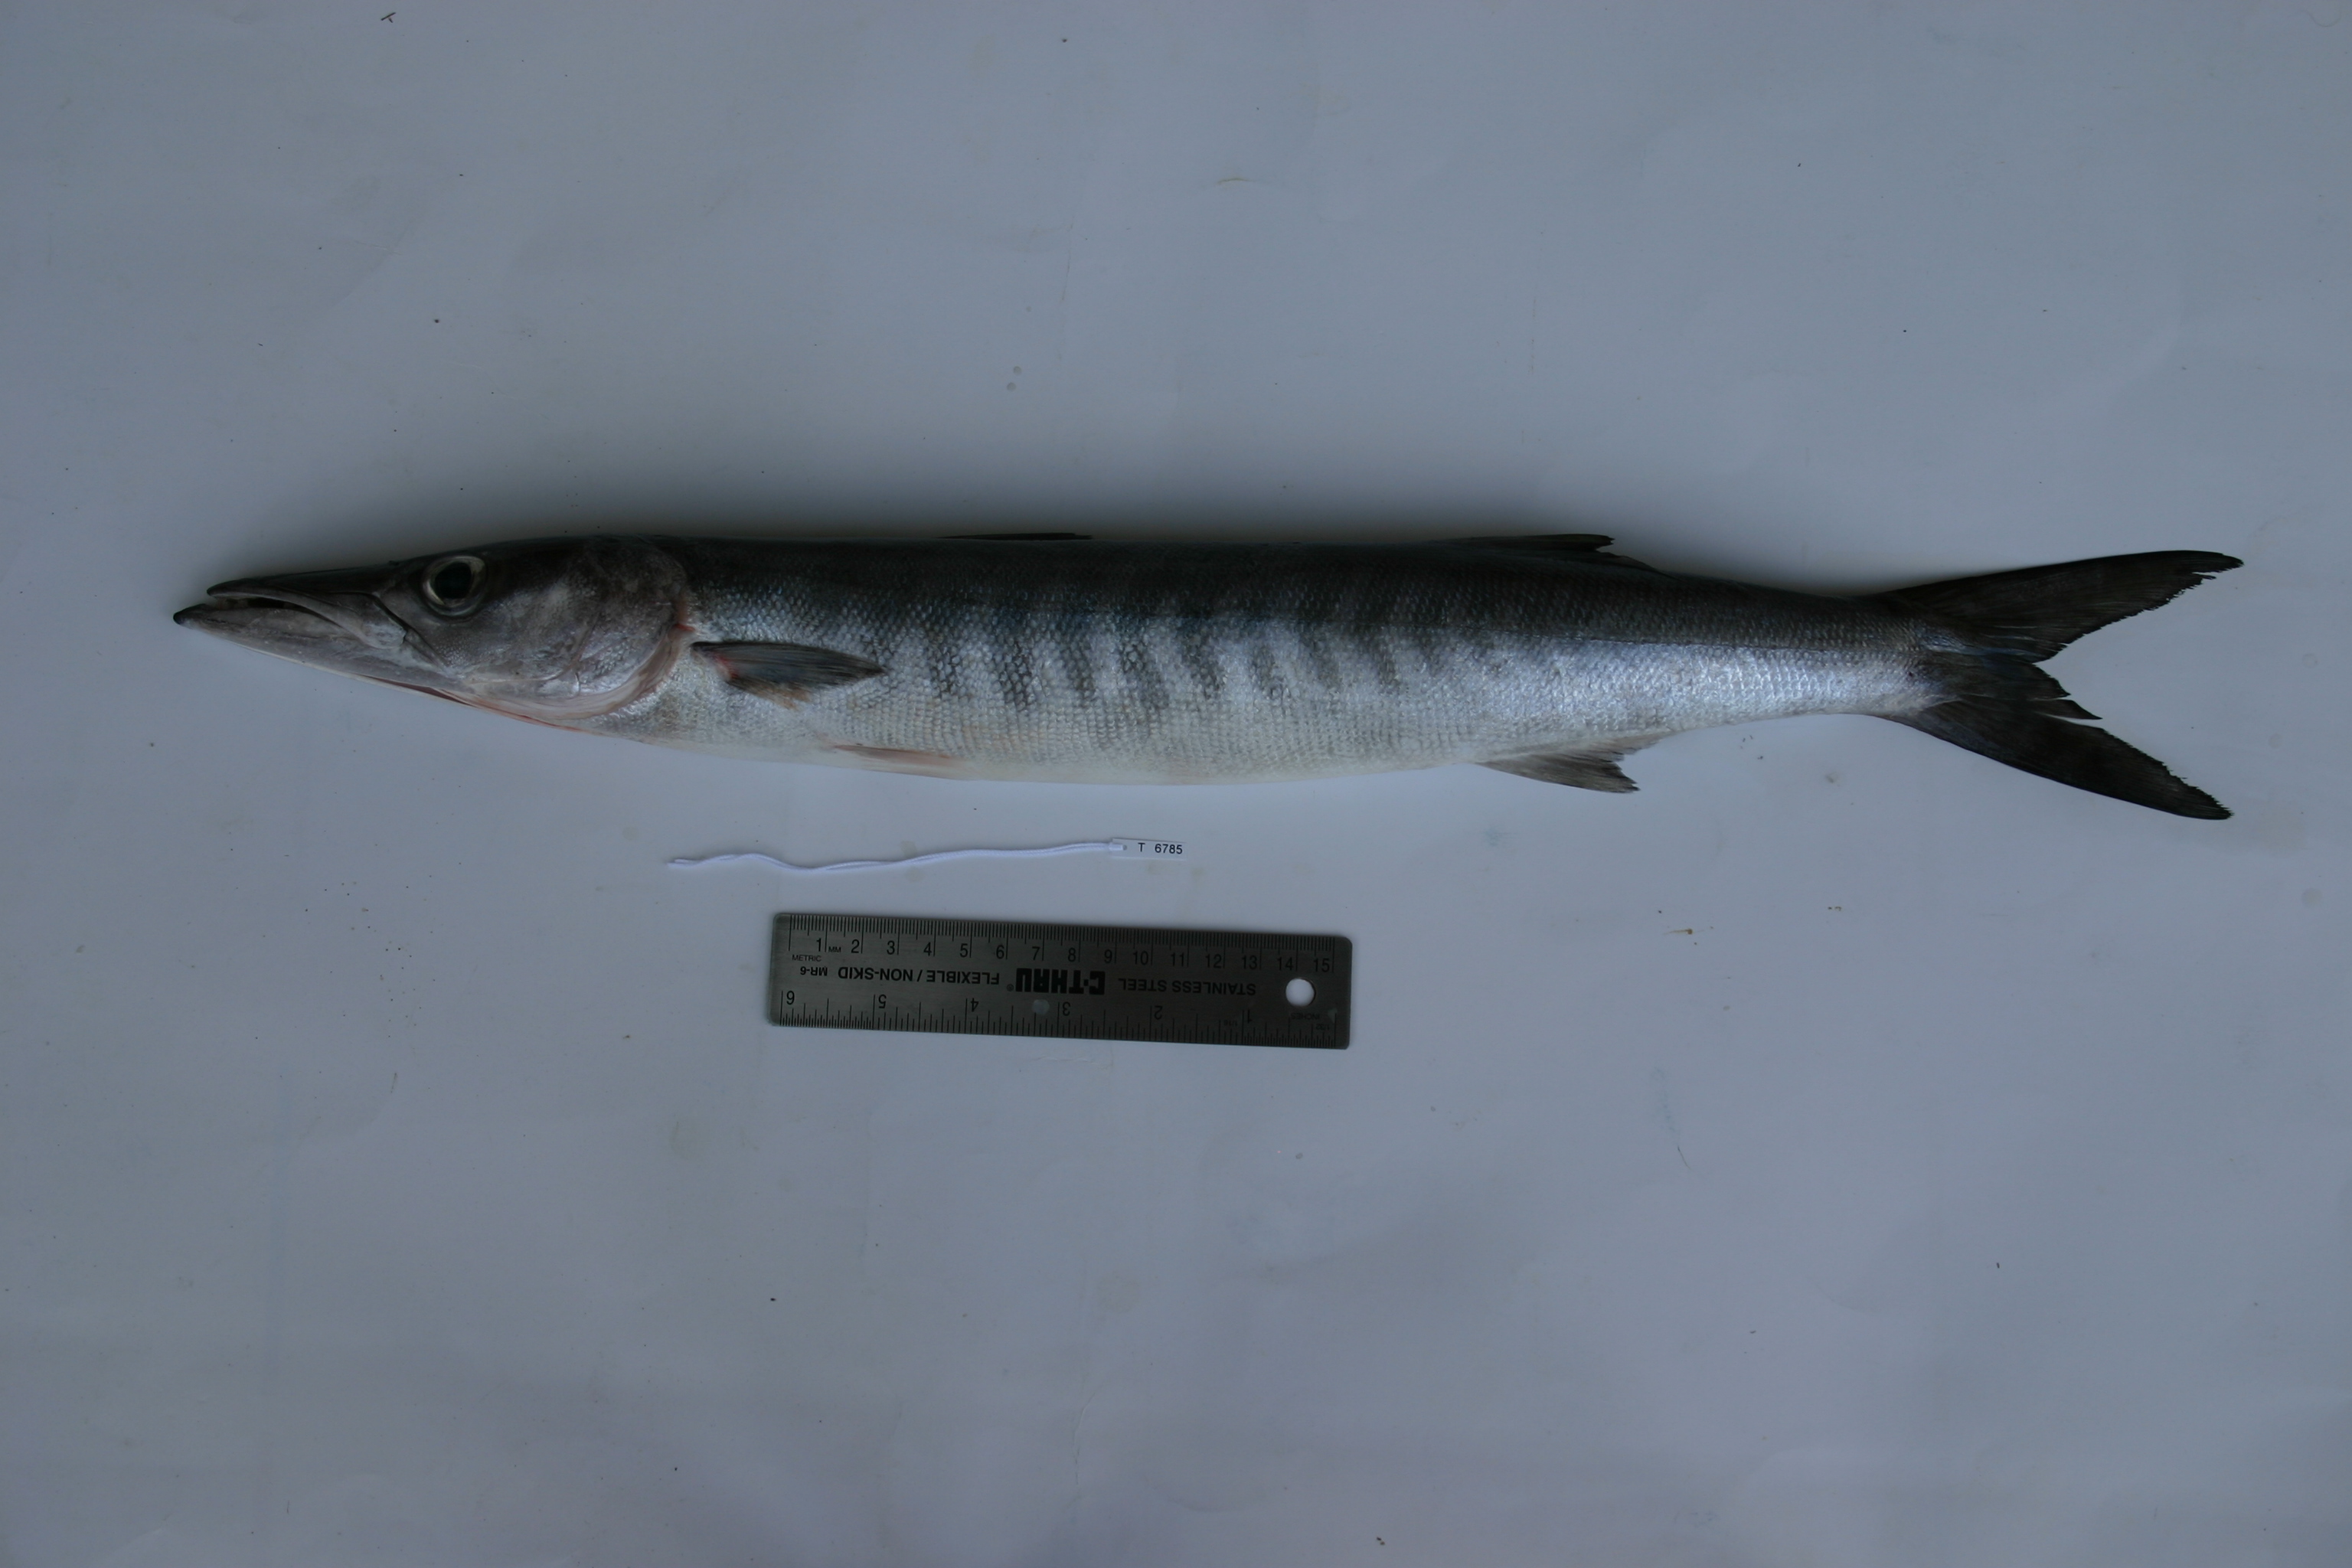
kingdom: Animalia
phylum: Chordata
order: Perciformes
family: Sphyraenidae
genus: Sphyraena
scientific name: Sphyraena putnamae
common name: Sawtooth barracuda
